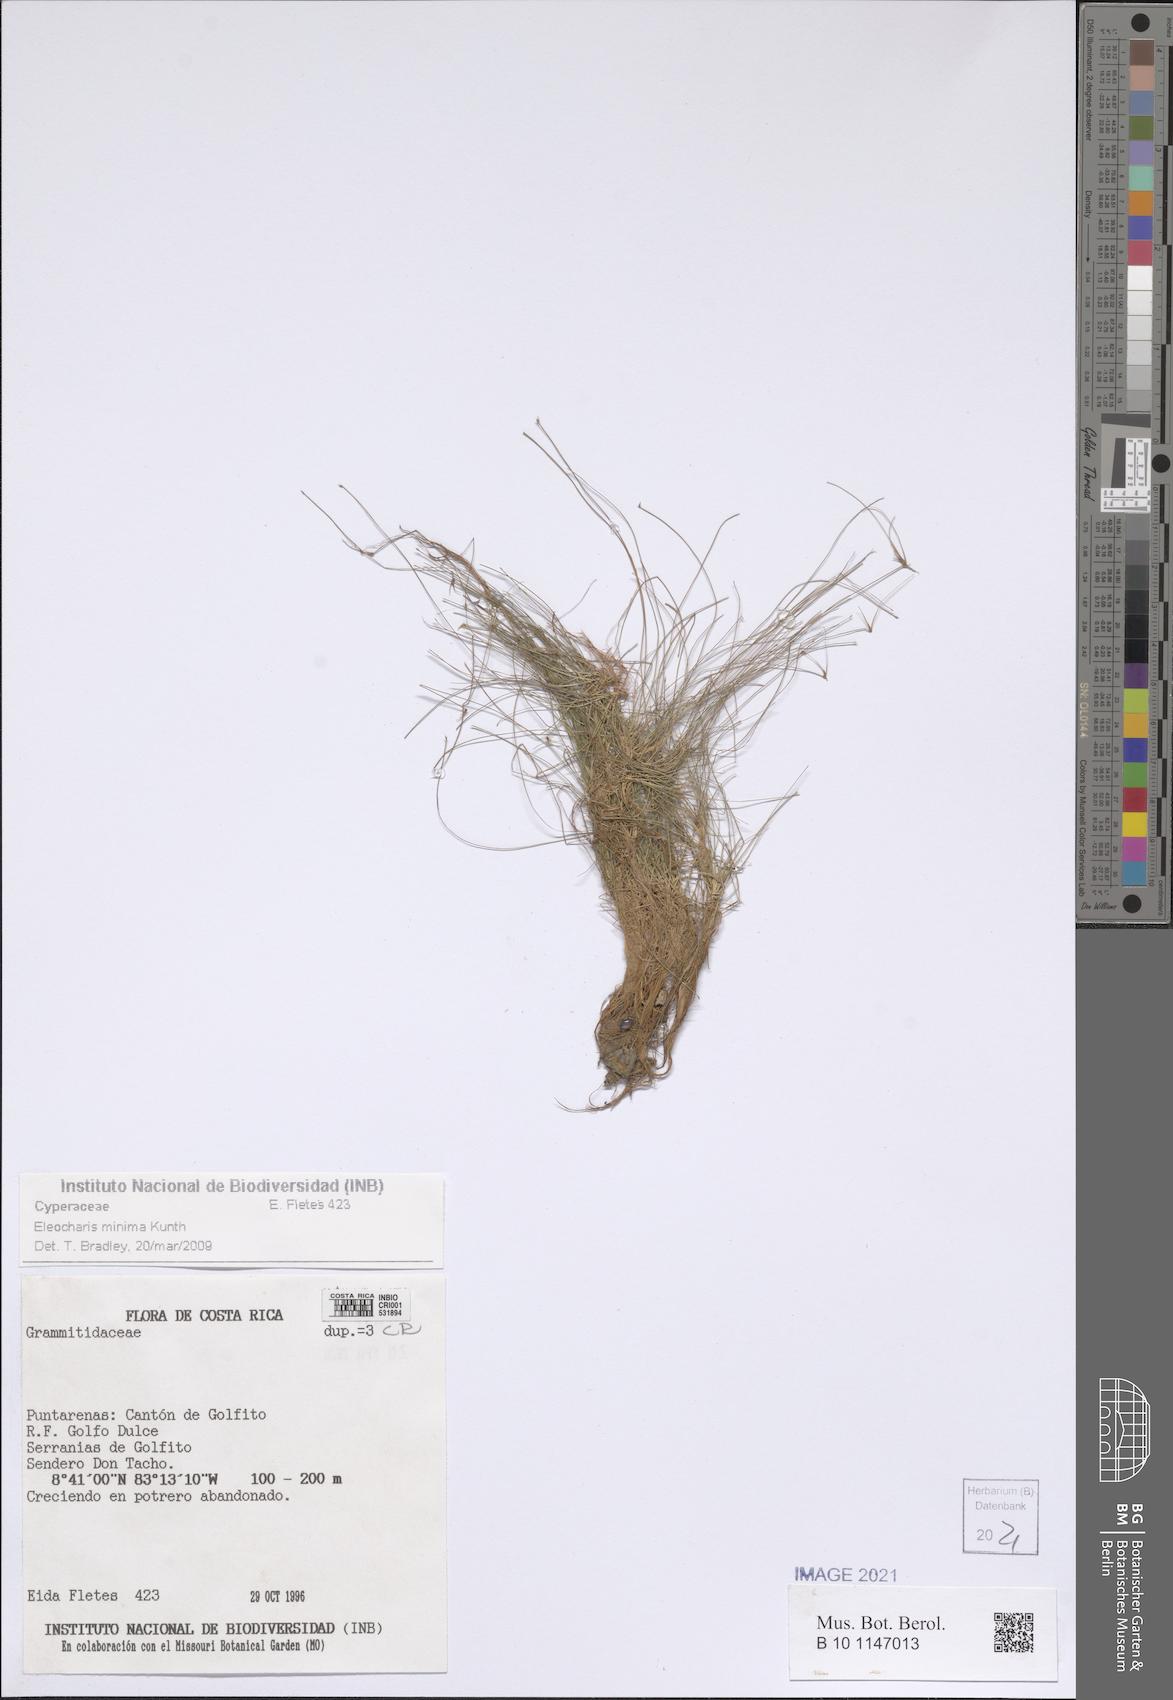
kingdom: Plantae
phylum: Tracheophyta
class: Liliopsida
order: Poales
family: Cyperaceae
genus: Eleocharis
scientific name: Eleocharis minima
